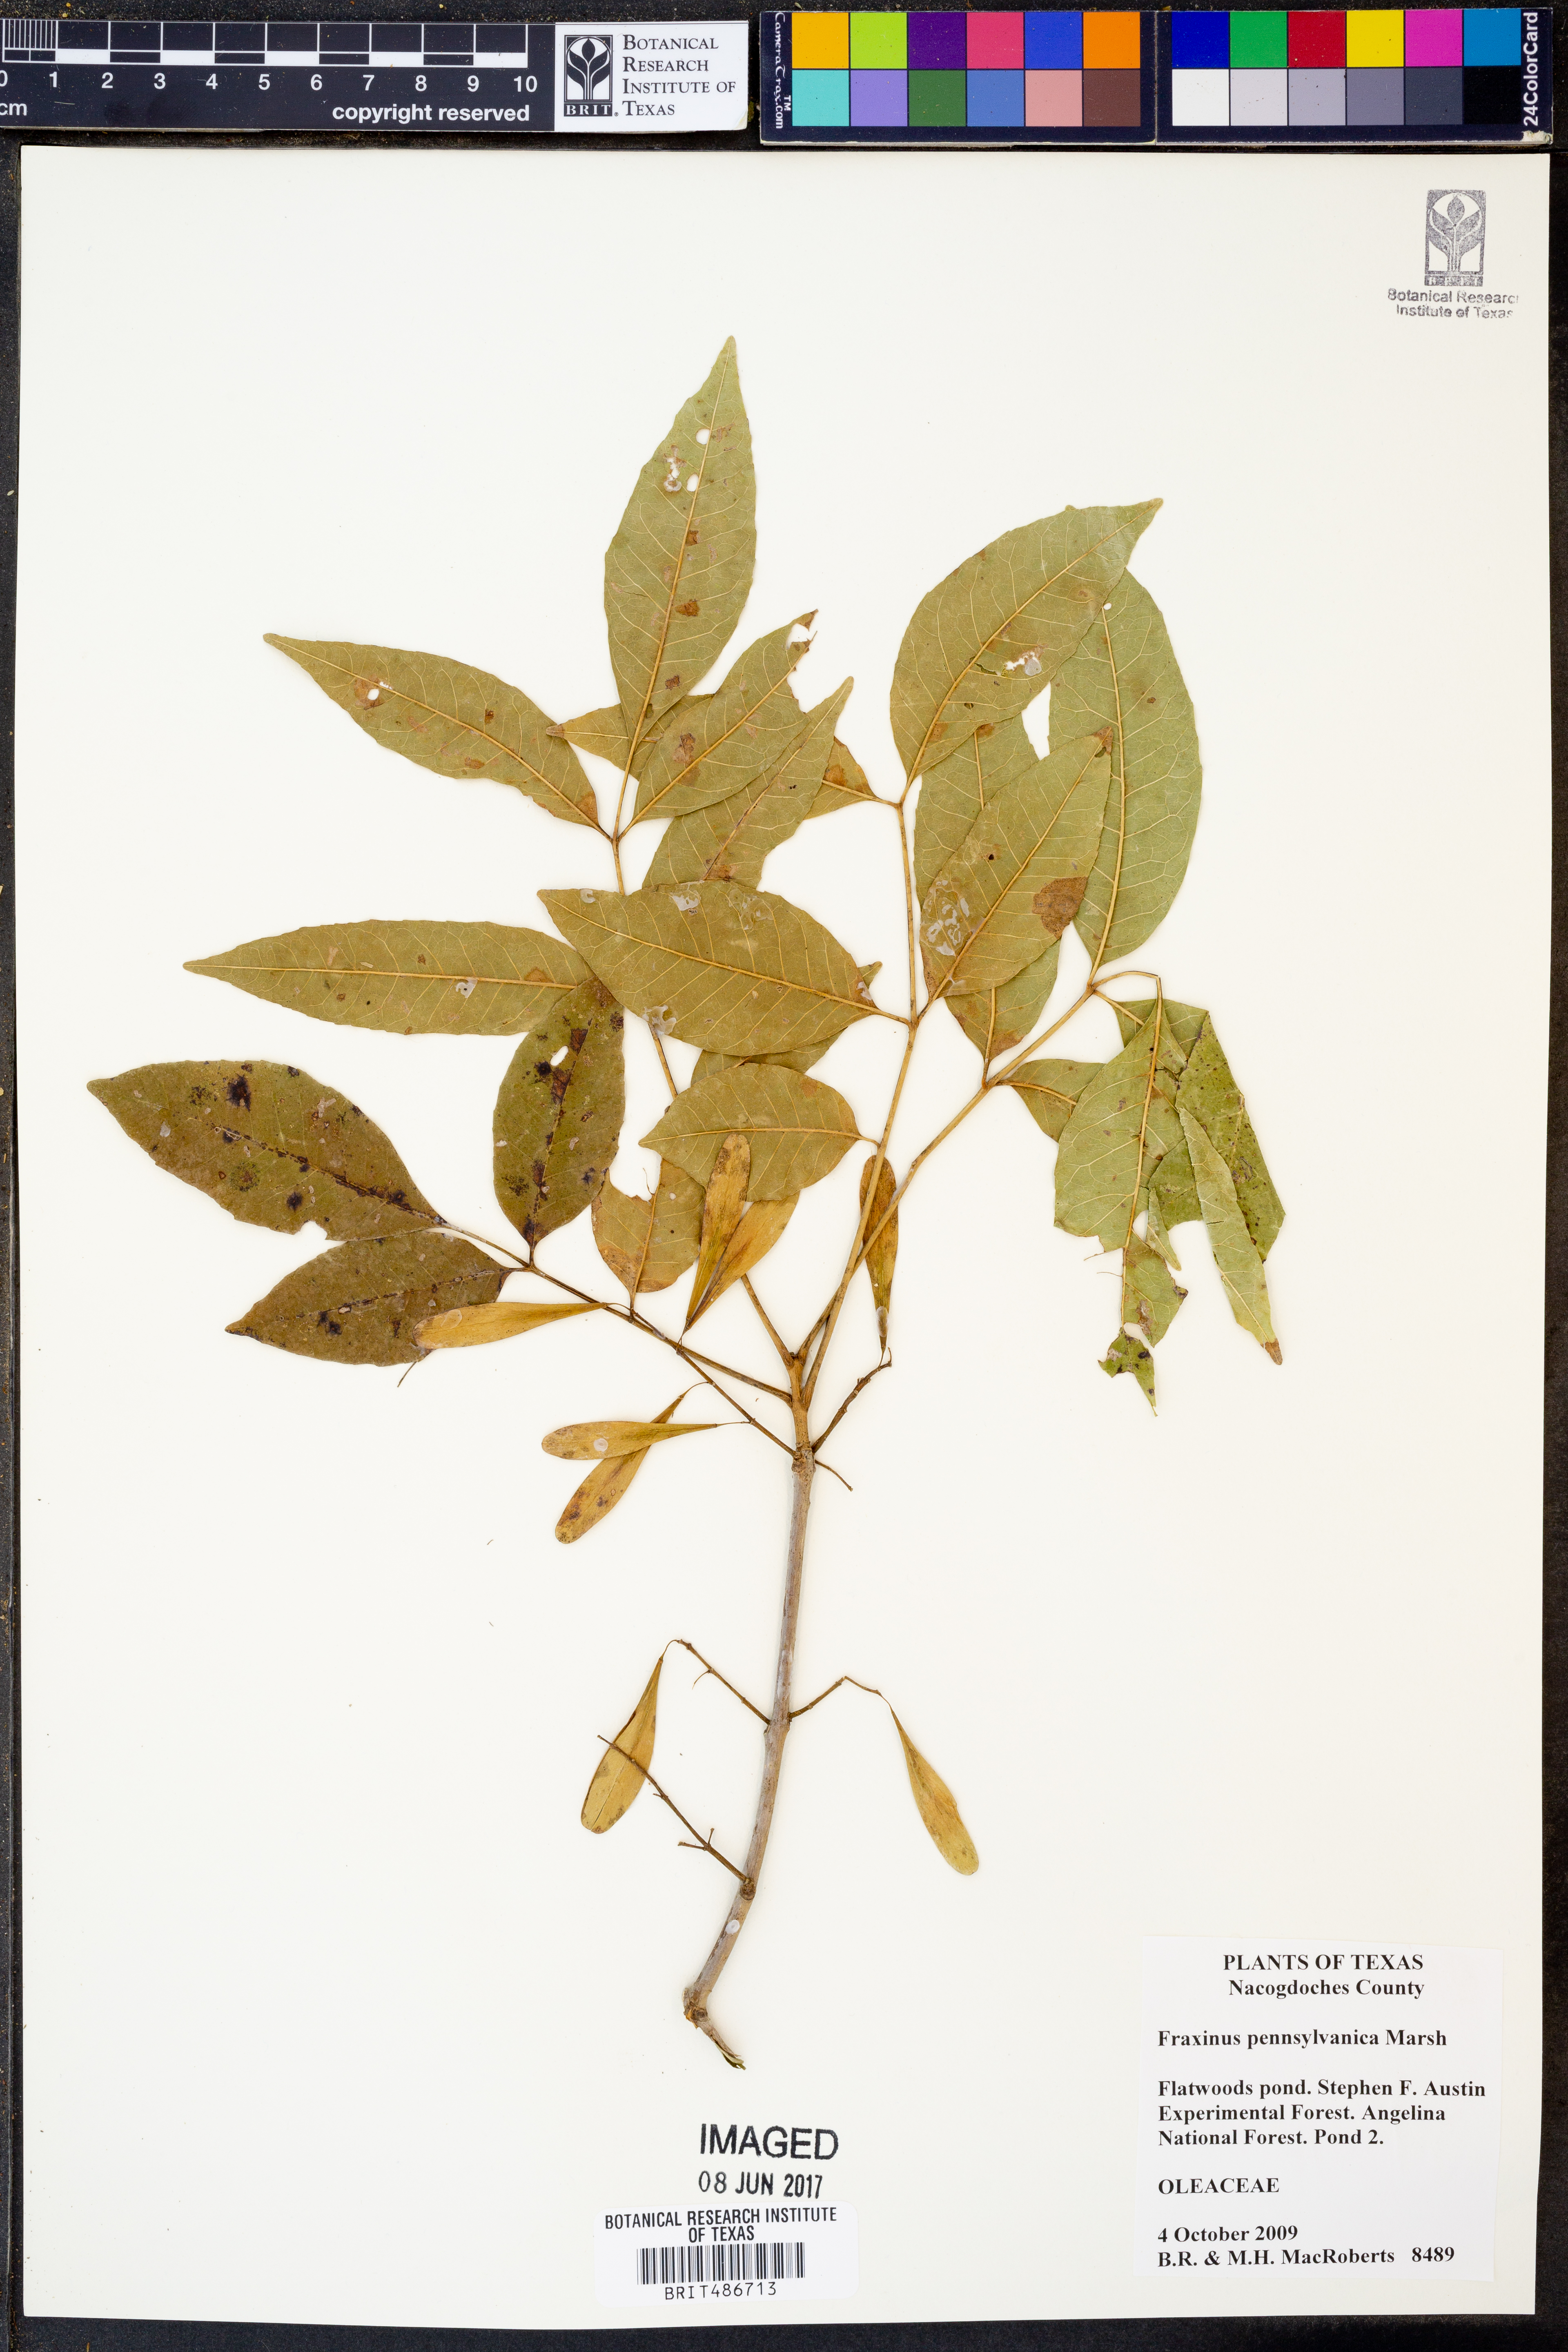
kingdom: Plantae
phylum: Tracheophyta
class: Magnoliopsida
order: Lamiales
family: Oleaceae
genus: Fraxinus
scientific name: Fraxinus pennsylvanica
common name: Green ash
